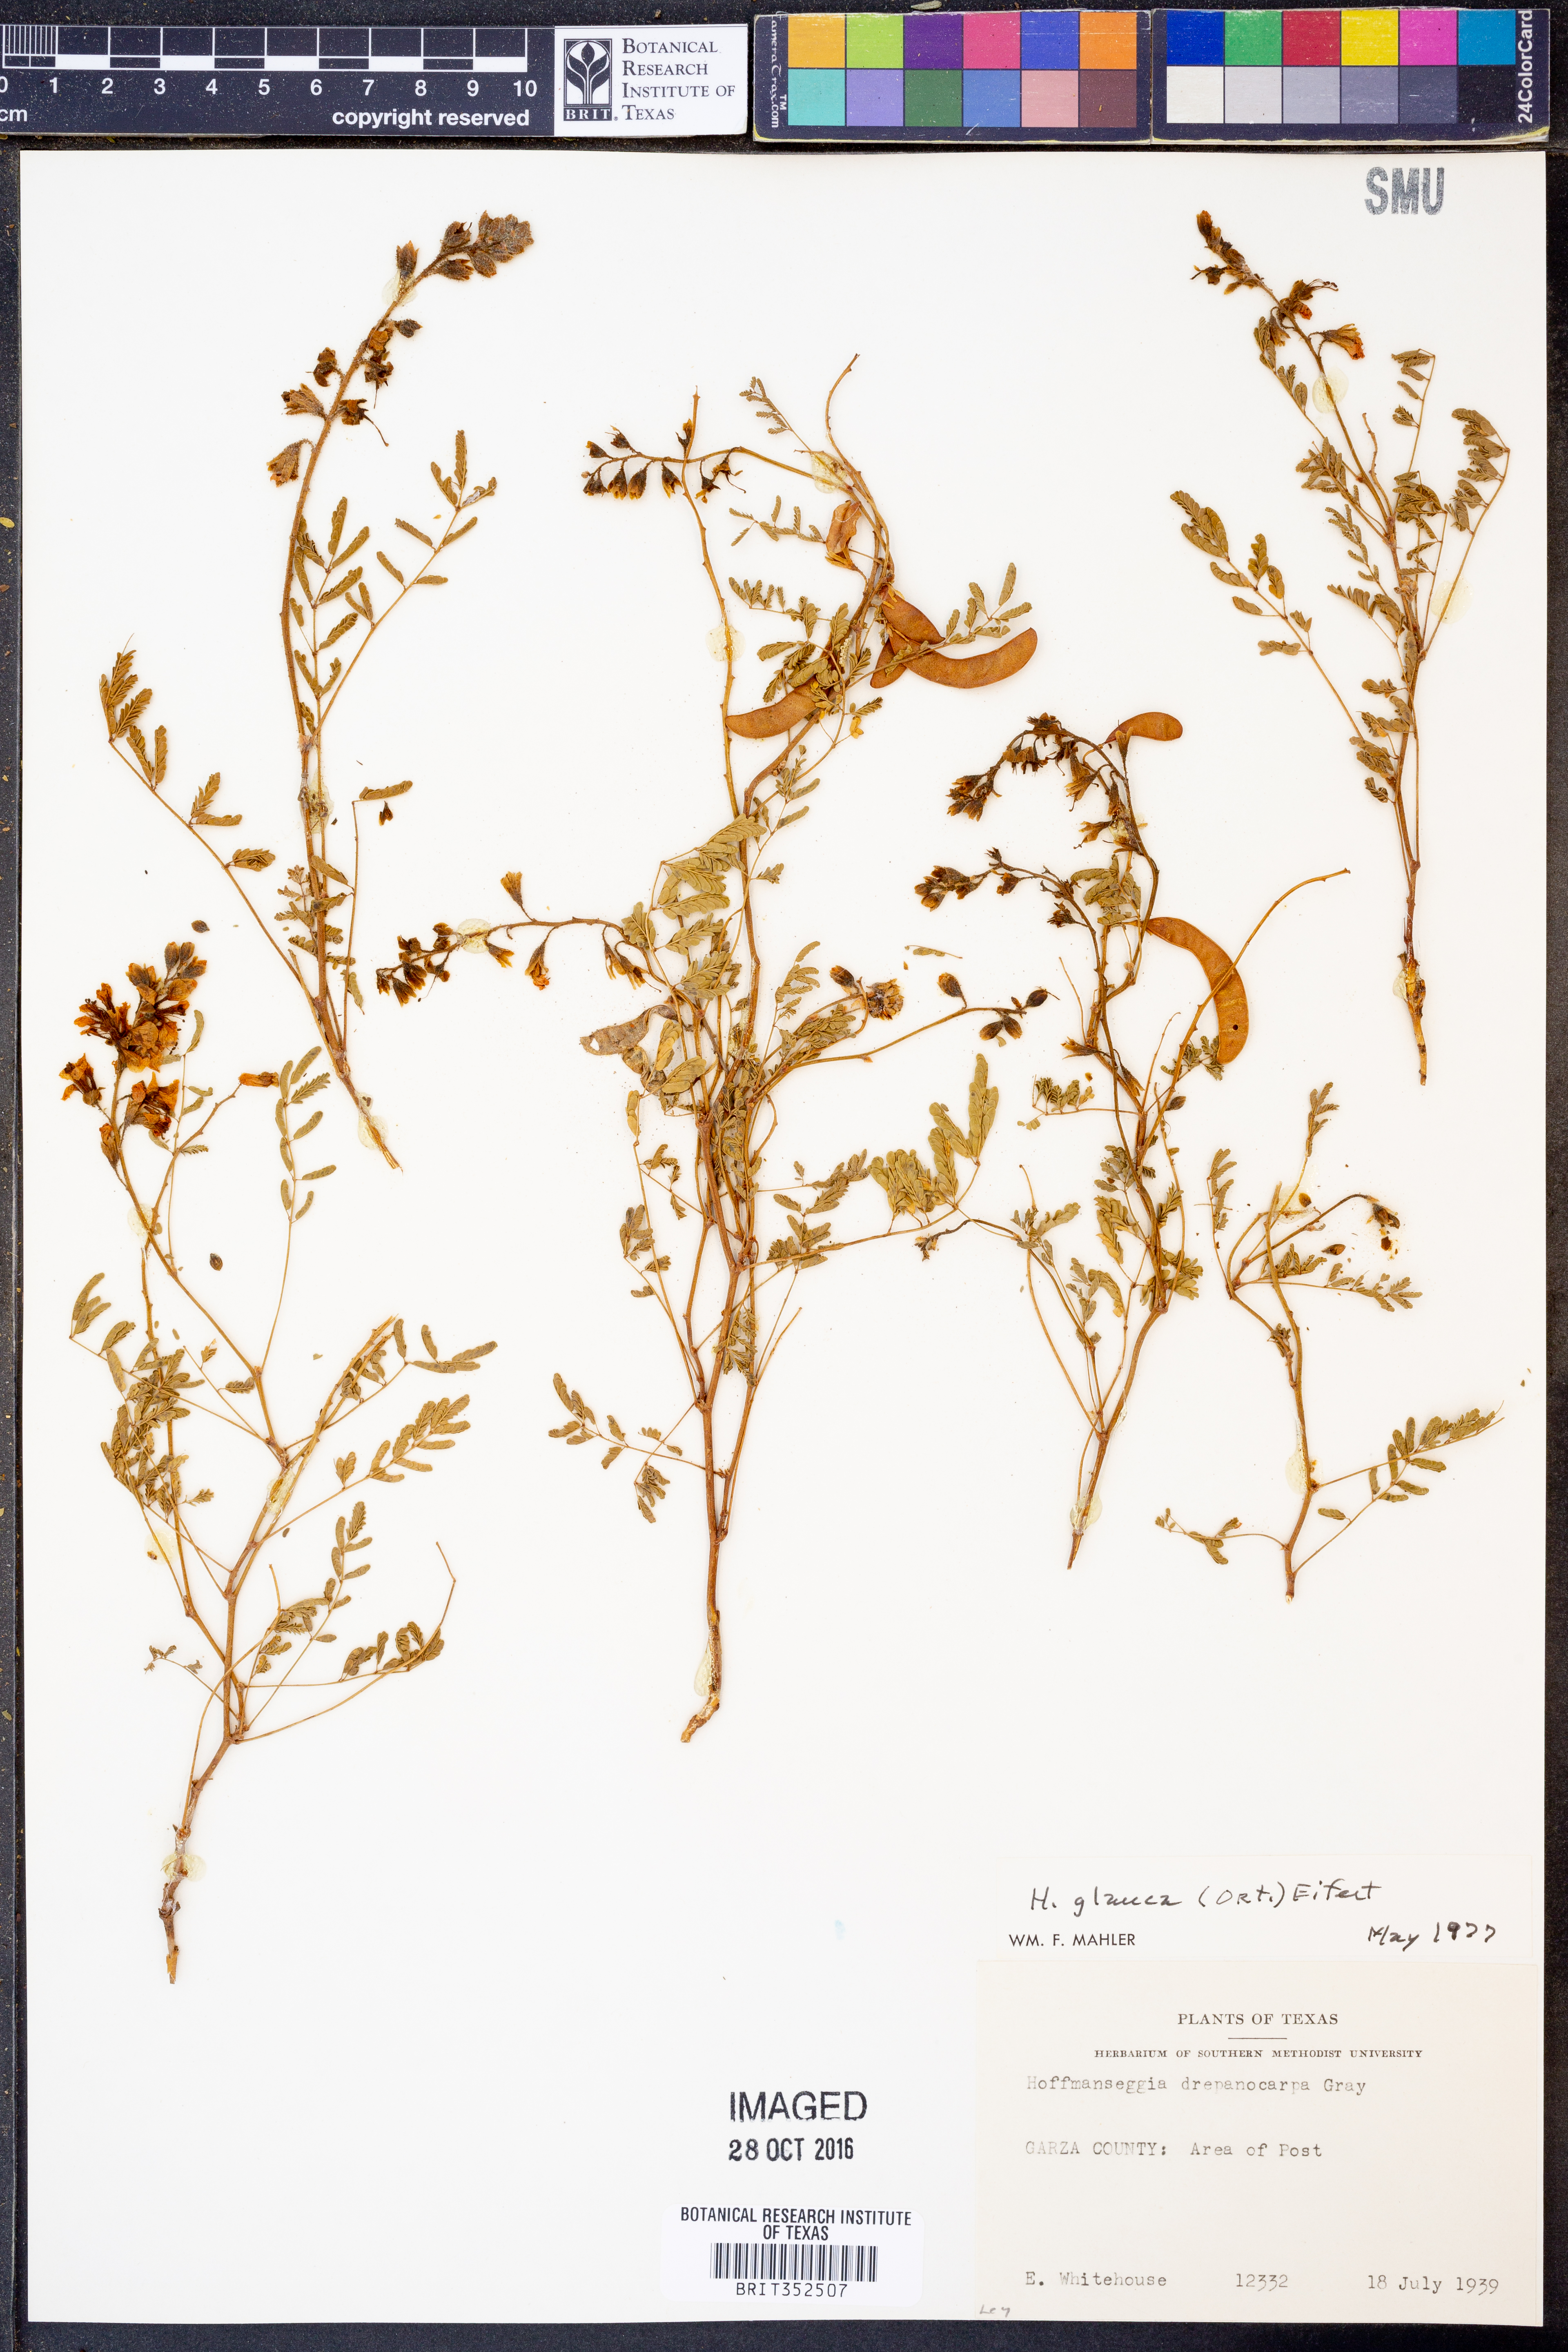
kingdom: Plantae
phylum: Tracheophyta
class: Magnoliopsida
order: Fabales
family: Fabaceae
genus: Hoffmannseggia
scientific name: Hoffmannseggia glauca
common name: Pignut
